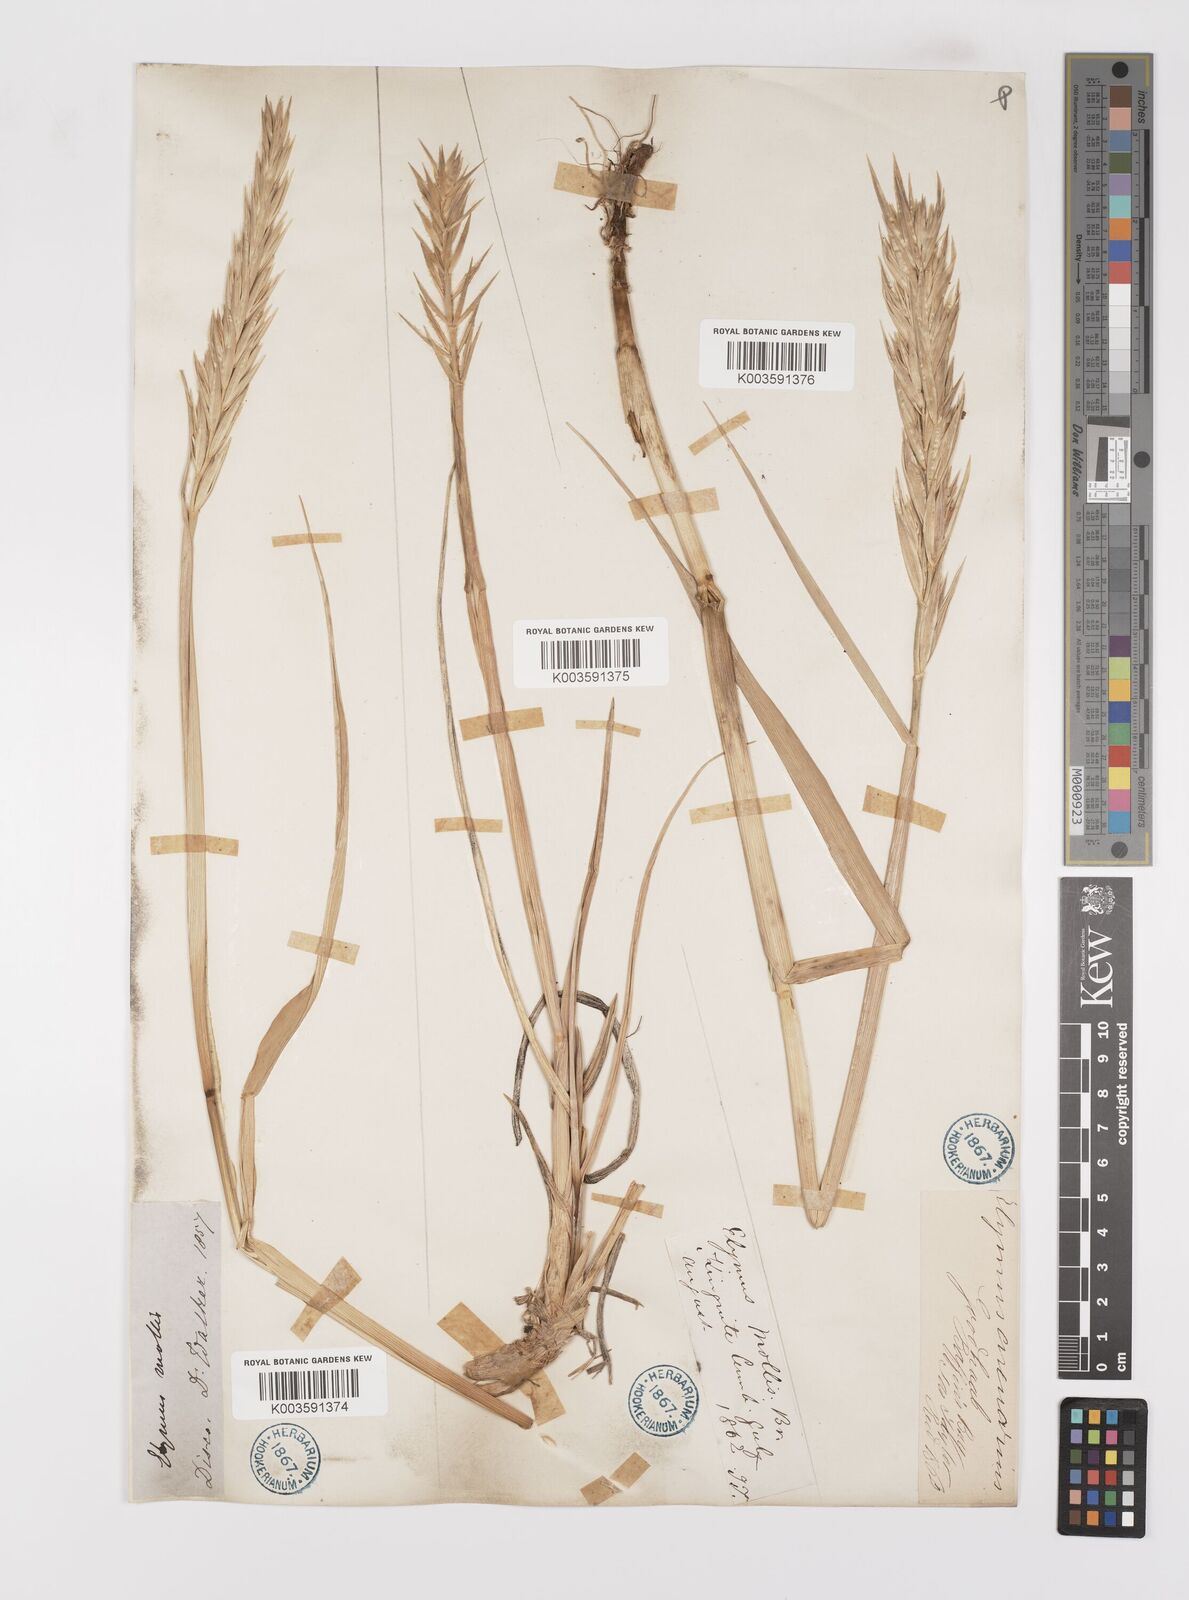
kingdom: Plantae
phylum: Tracheophyta
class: Liliopsida
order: Poales
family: Poaceae
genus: Leymus
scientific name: Leymus mollis
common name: American dune grass
